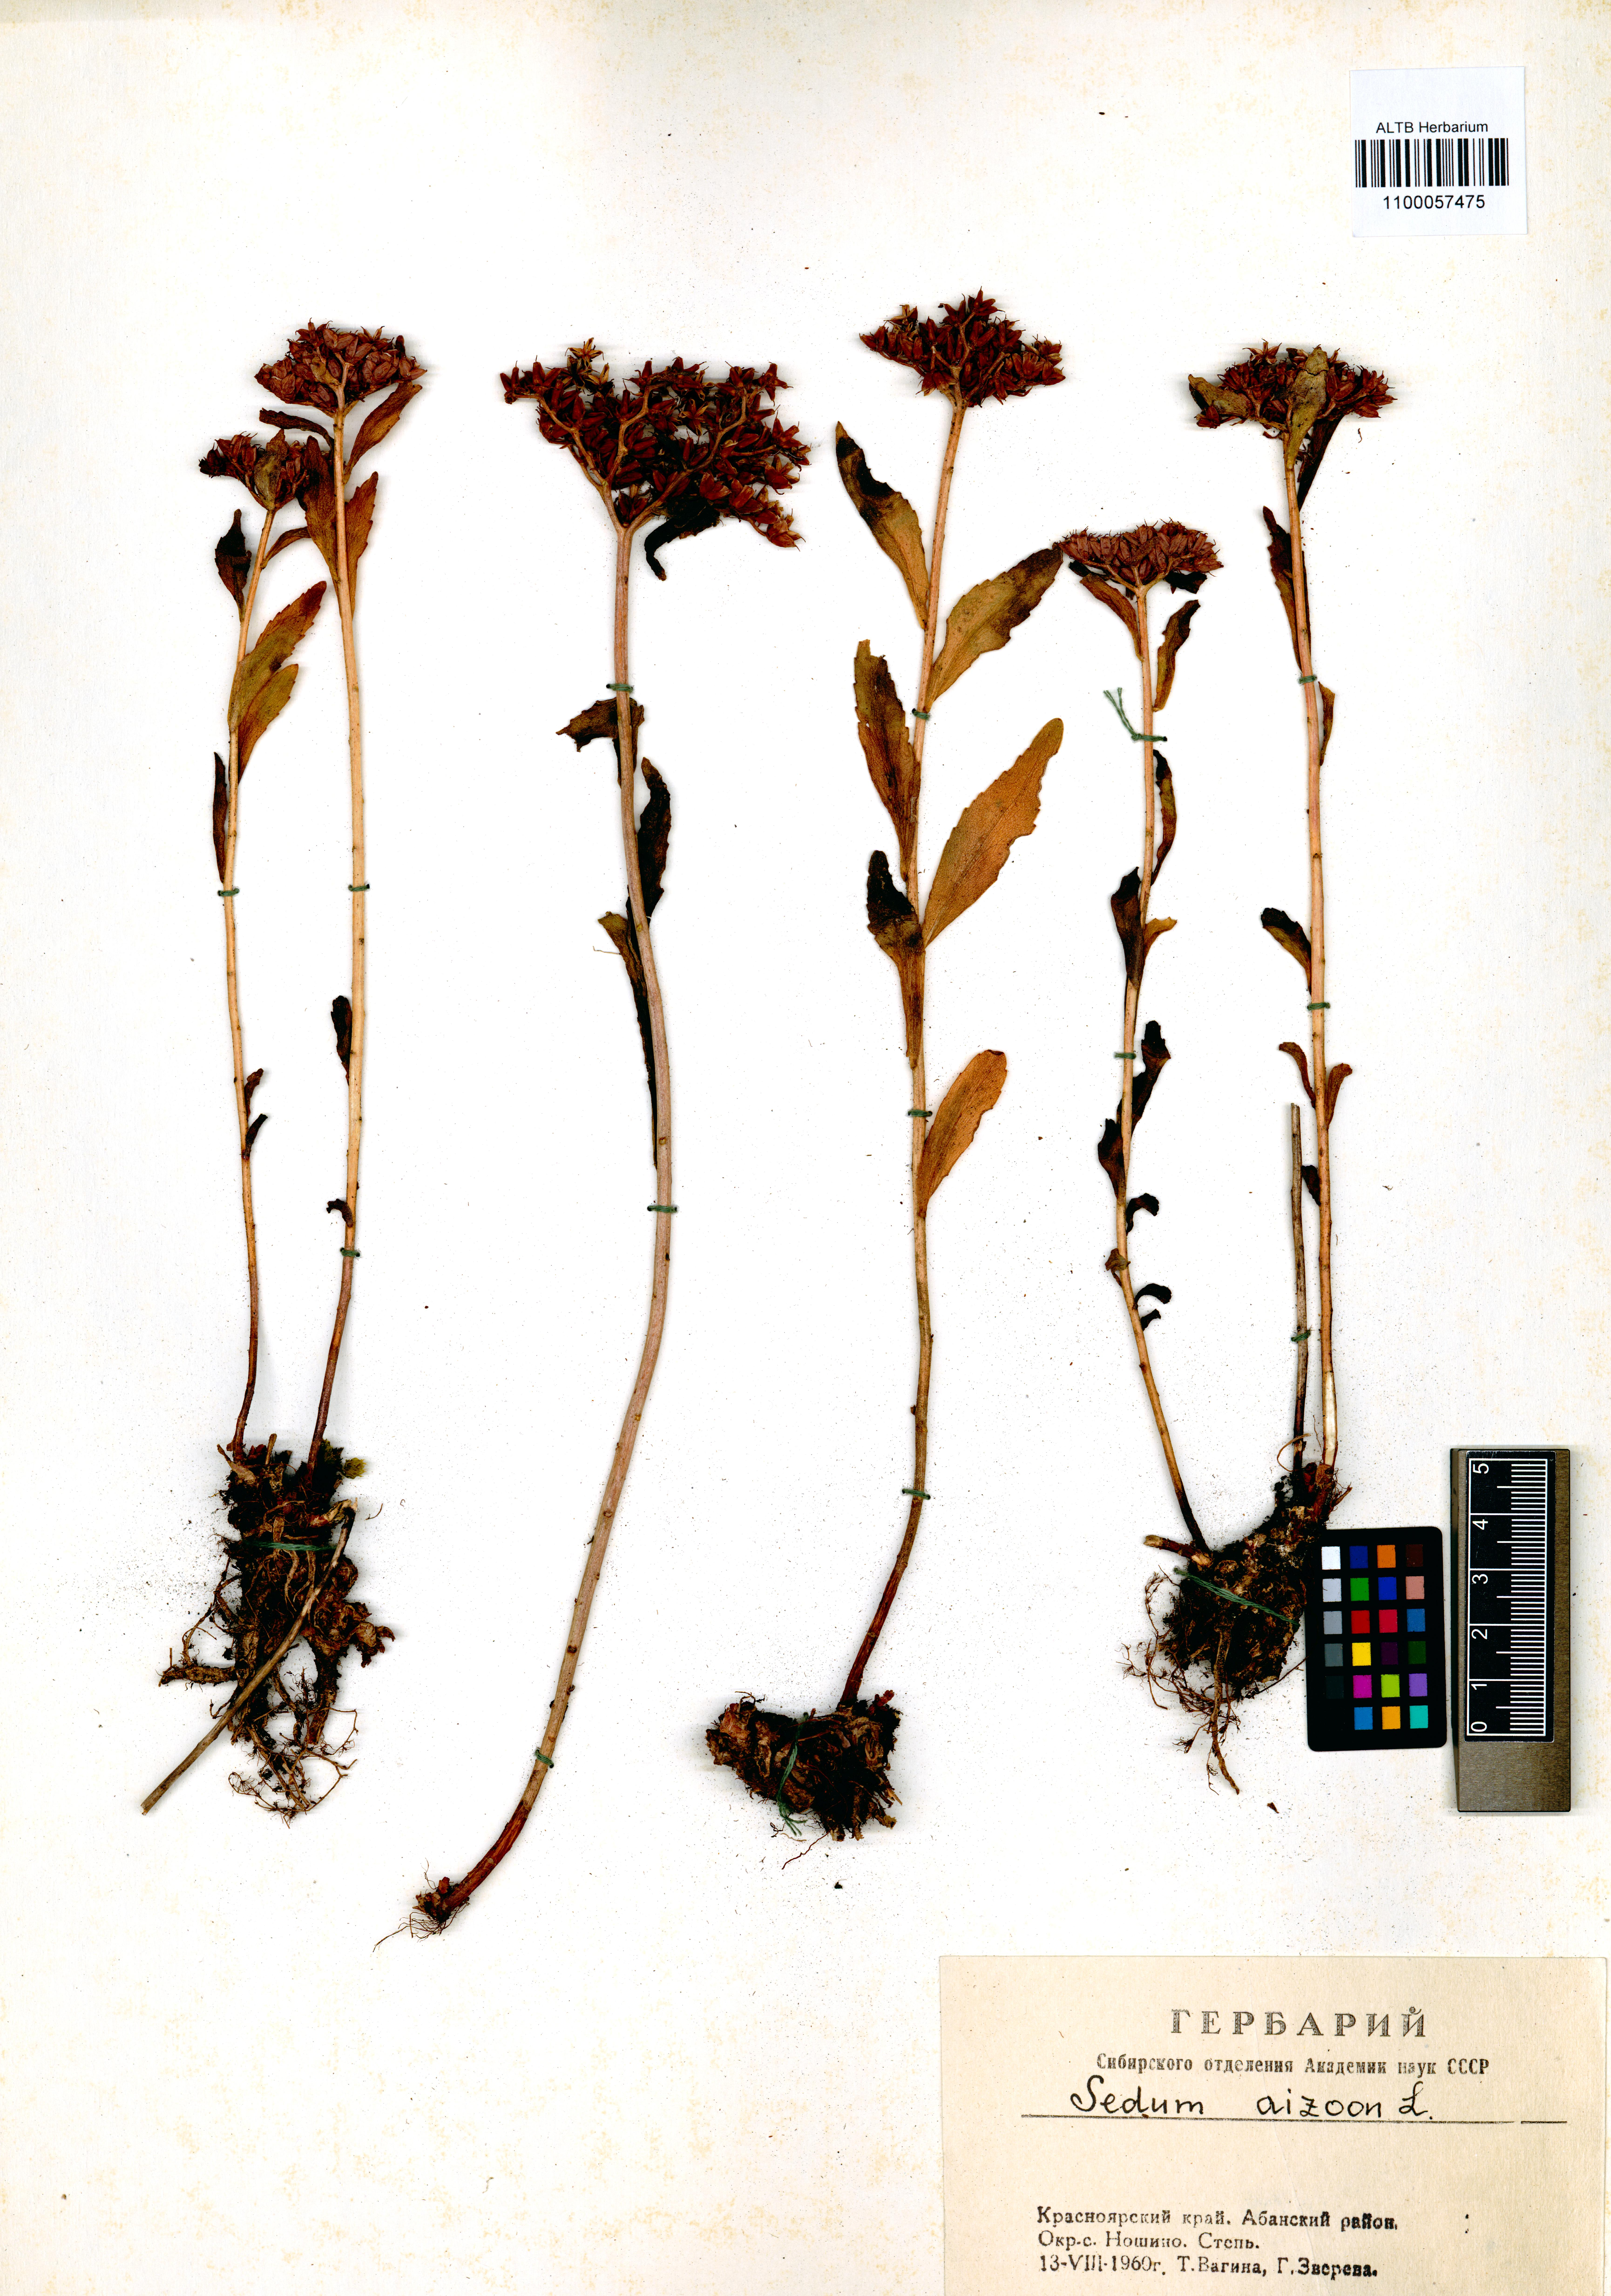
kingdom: Plantae
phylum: Tracheophyta
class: Magnoliopsida
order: Saxifragales
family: Crassulaceae
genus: Phedimus
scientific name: Phedimus aizoon
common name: Orpin aizoon
